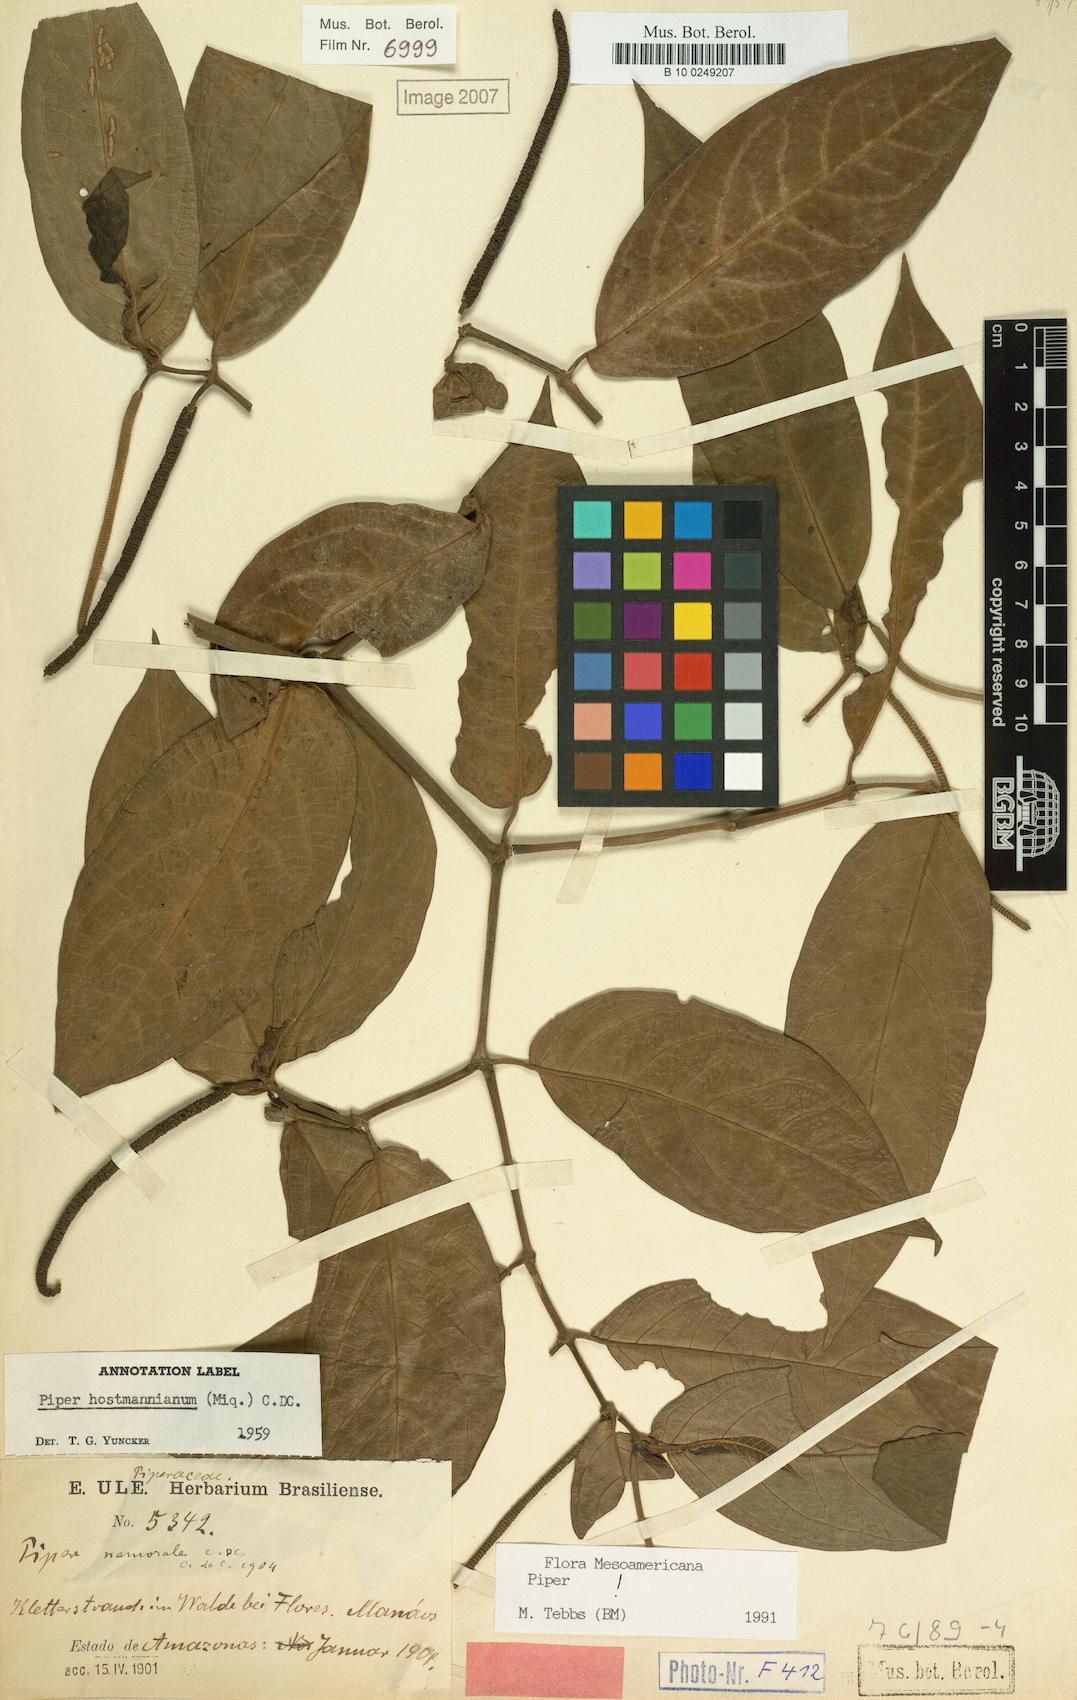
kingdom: Plantae
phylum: Tracheophyta
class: Magnoliopsida
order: Piperales
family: Piperaceae
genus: Piper
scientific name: Piper hostmannianum
